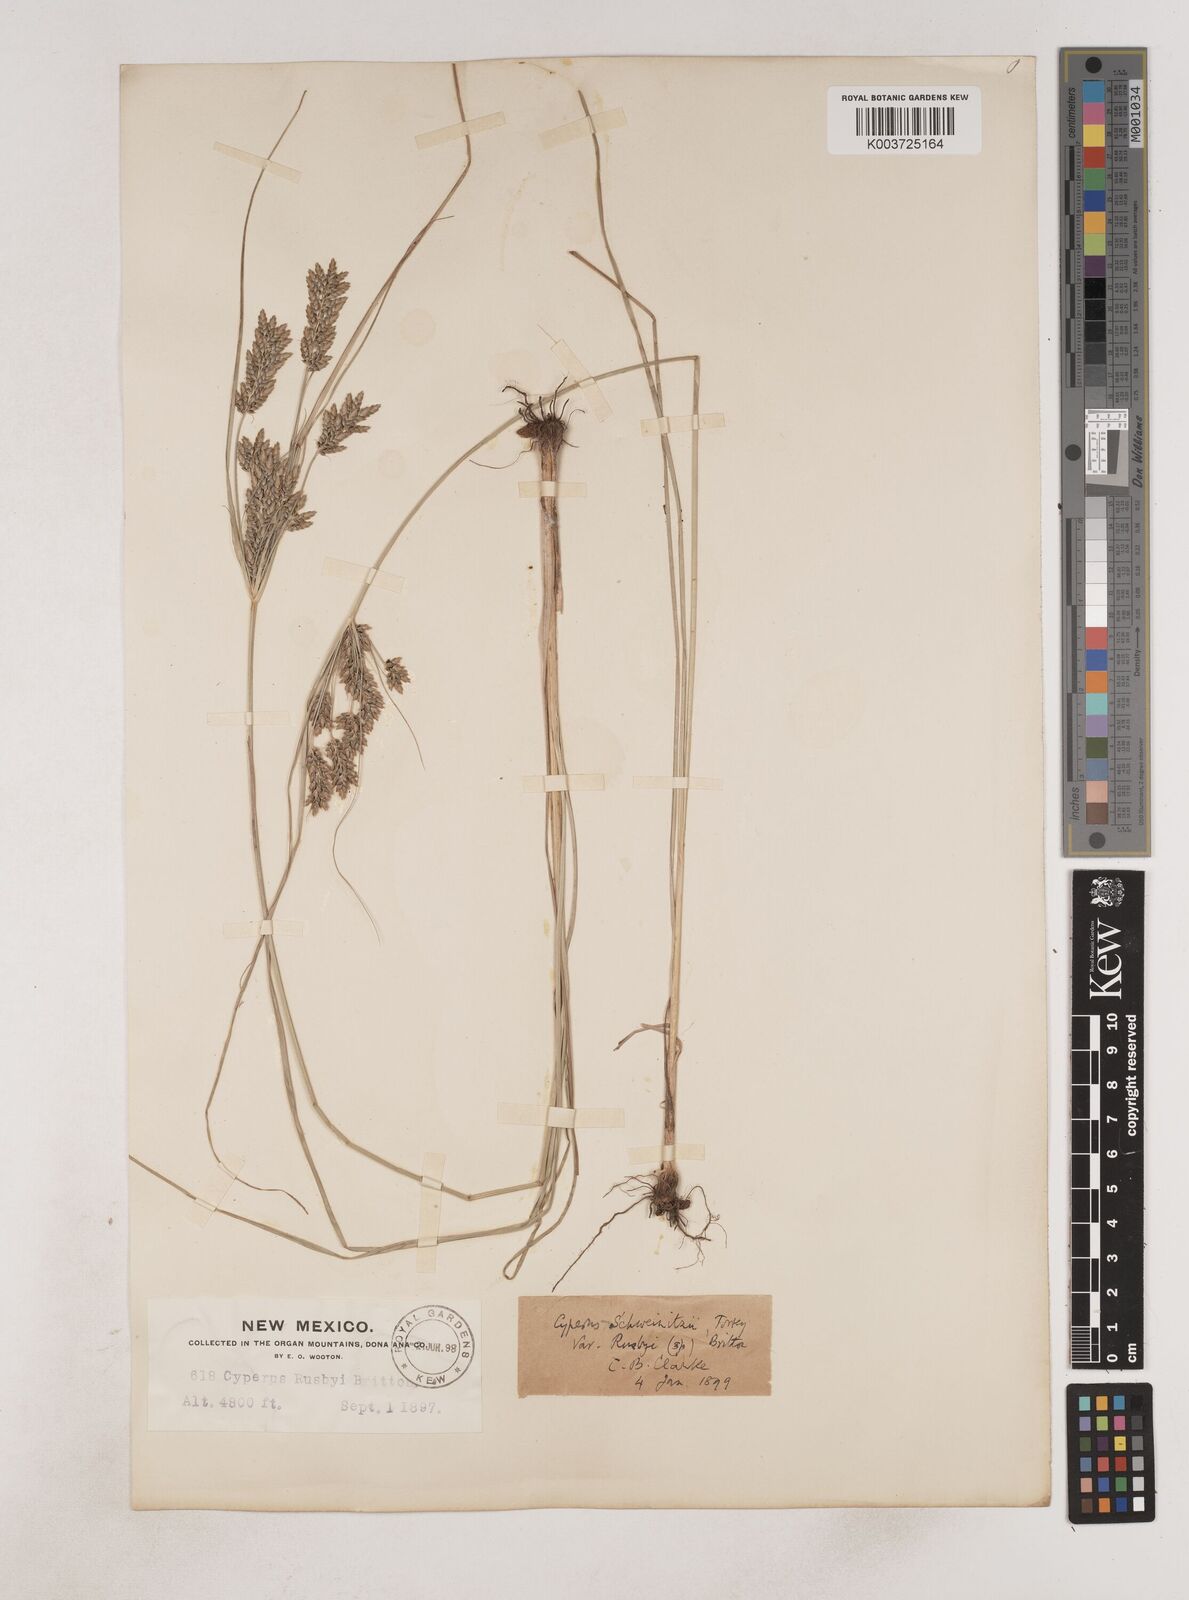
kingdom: Plantae
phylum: Tracheophyta
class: Liliopsida
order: Poales
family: Cyperaceae
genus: Cyperus
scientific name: Cyperus sphaerolepis
